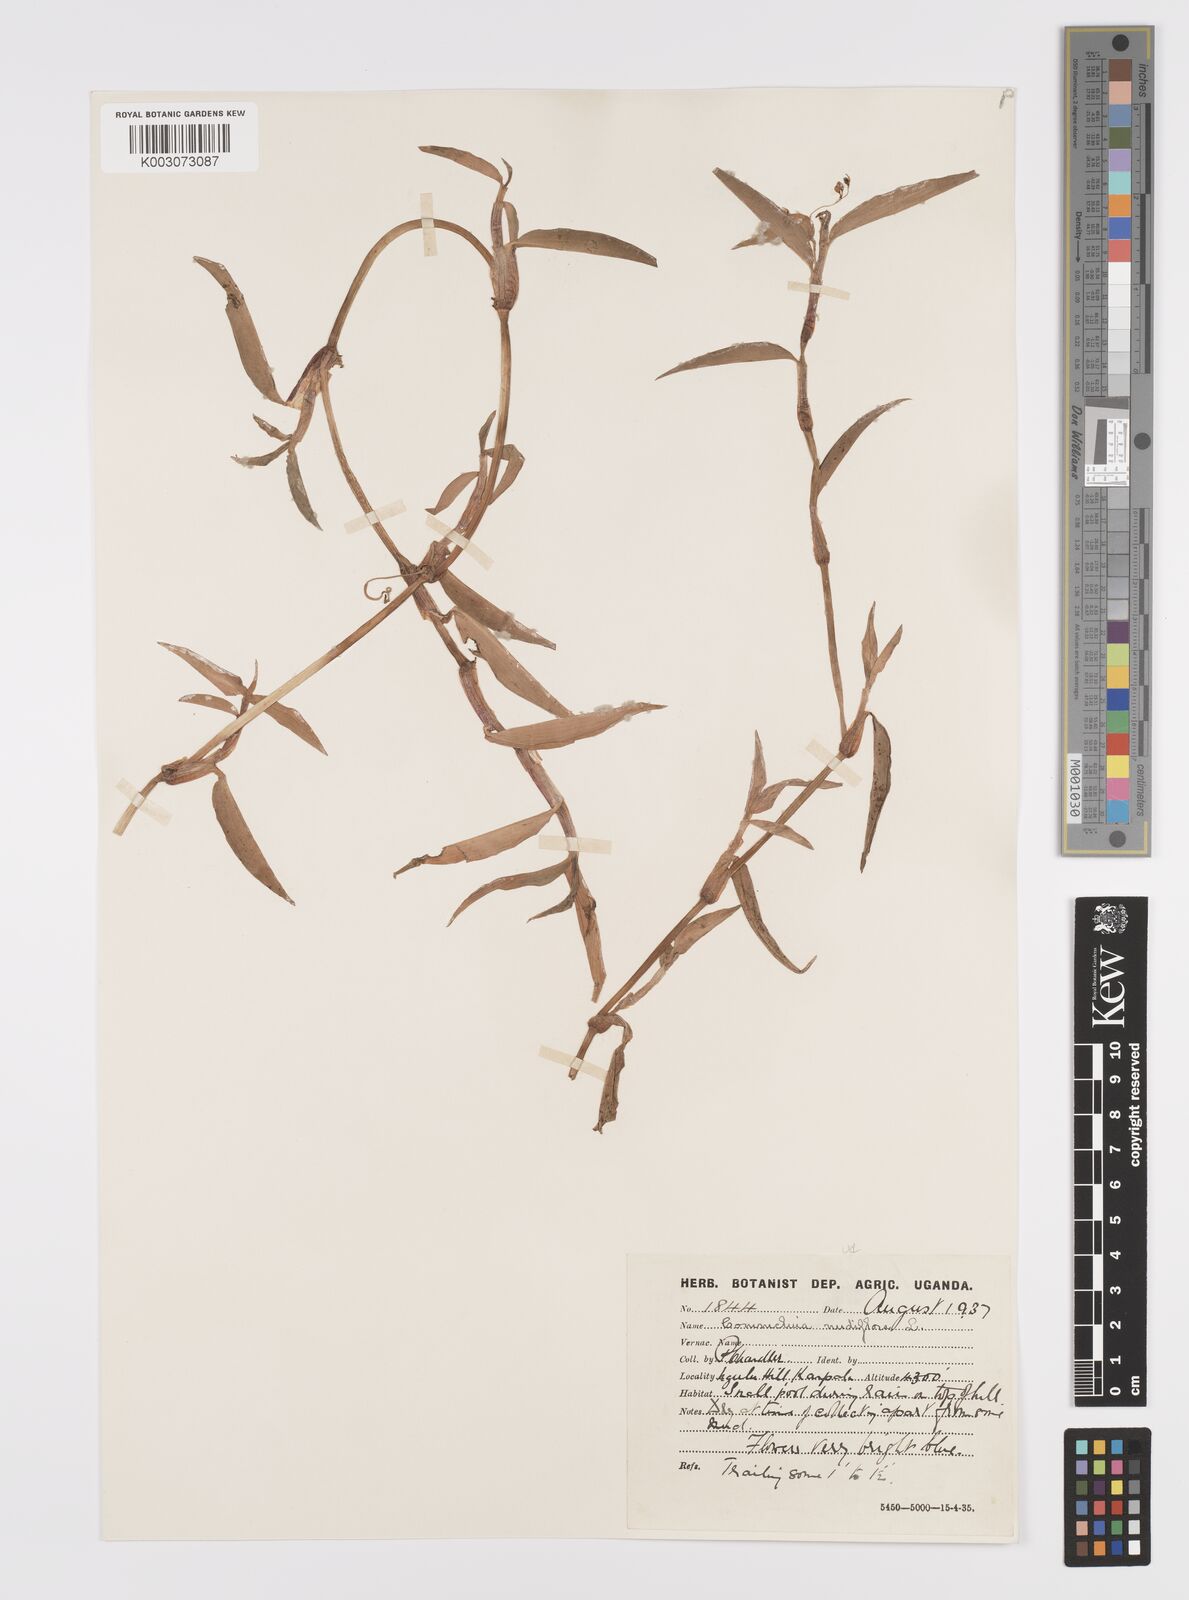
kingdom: Plantae
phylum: Tracheophyta
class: Liliopsida
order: Commelinales
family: Commelinaceae
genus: Commelina
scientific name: Commelina diffusa
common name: Climbing dayflower
